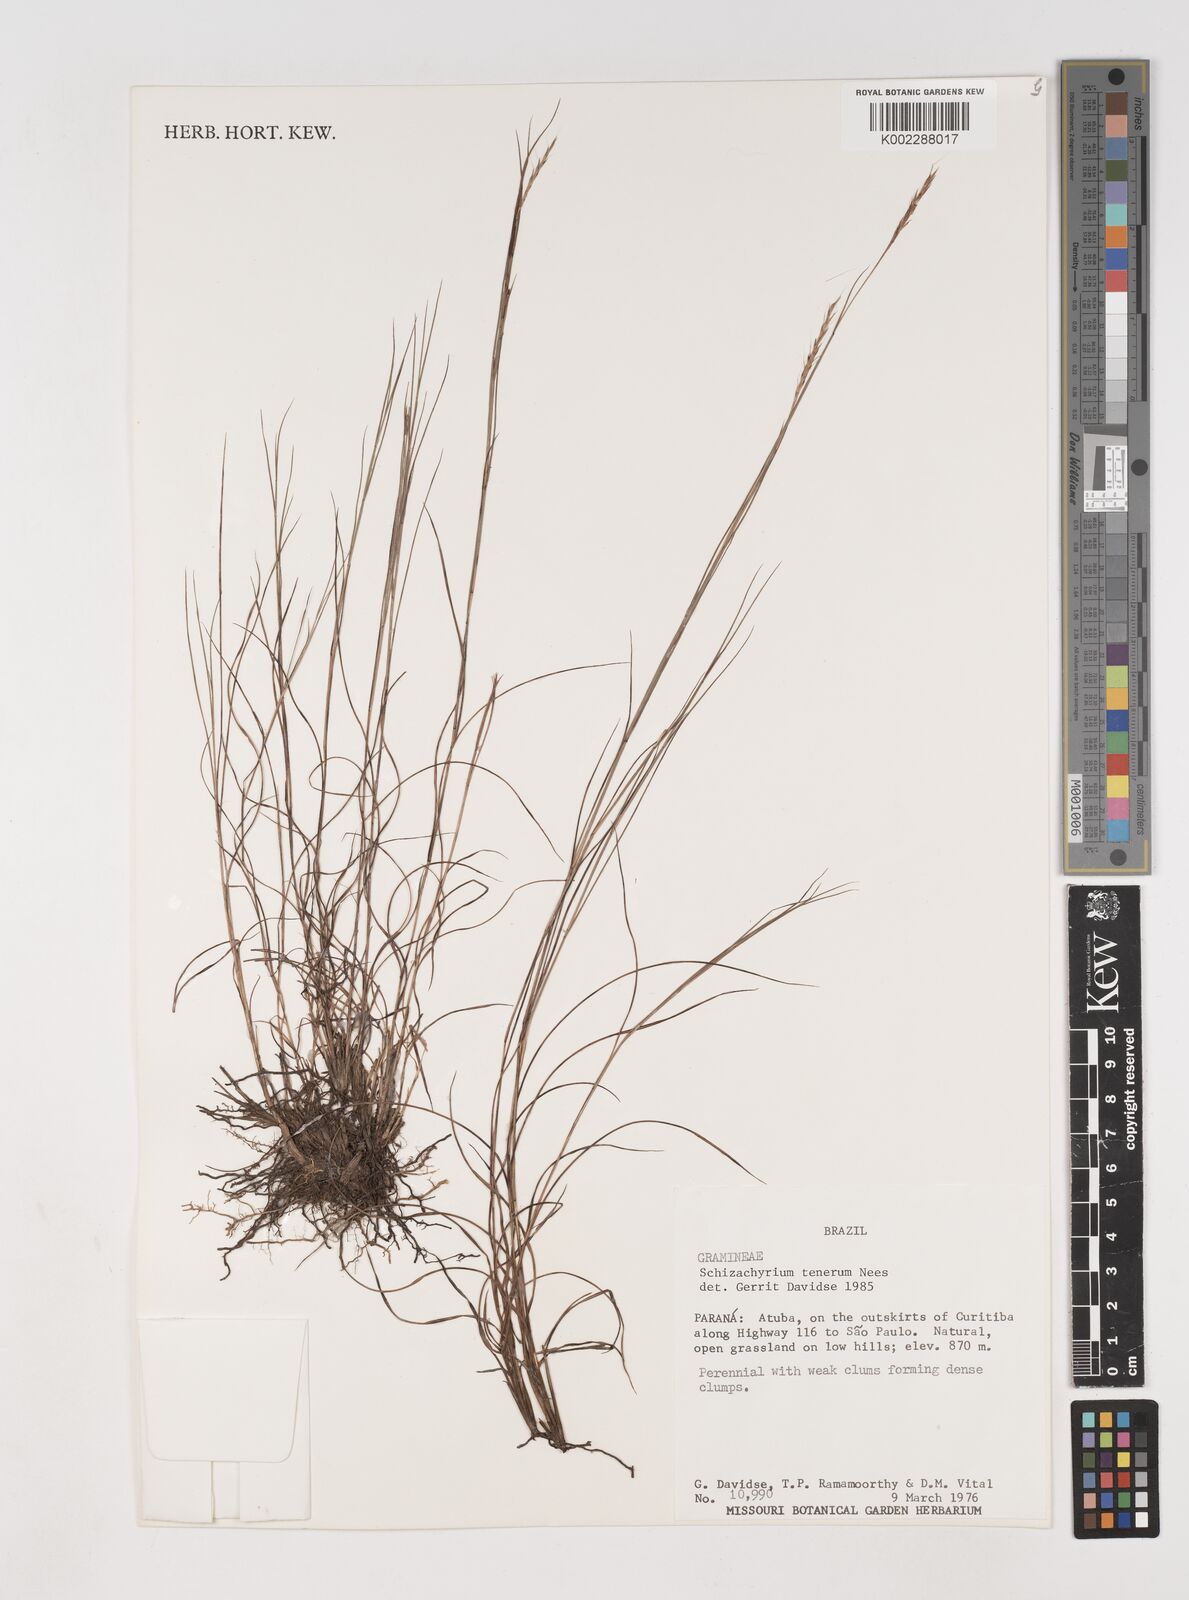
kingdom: Plantae
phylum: Tracheophyta
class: Liliopsida
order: Poales
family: Poaceae
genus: Andropogon
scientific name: Andropogon tener
